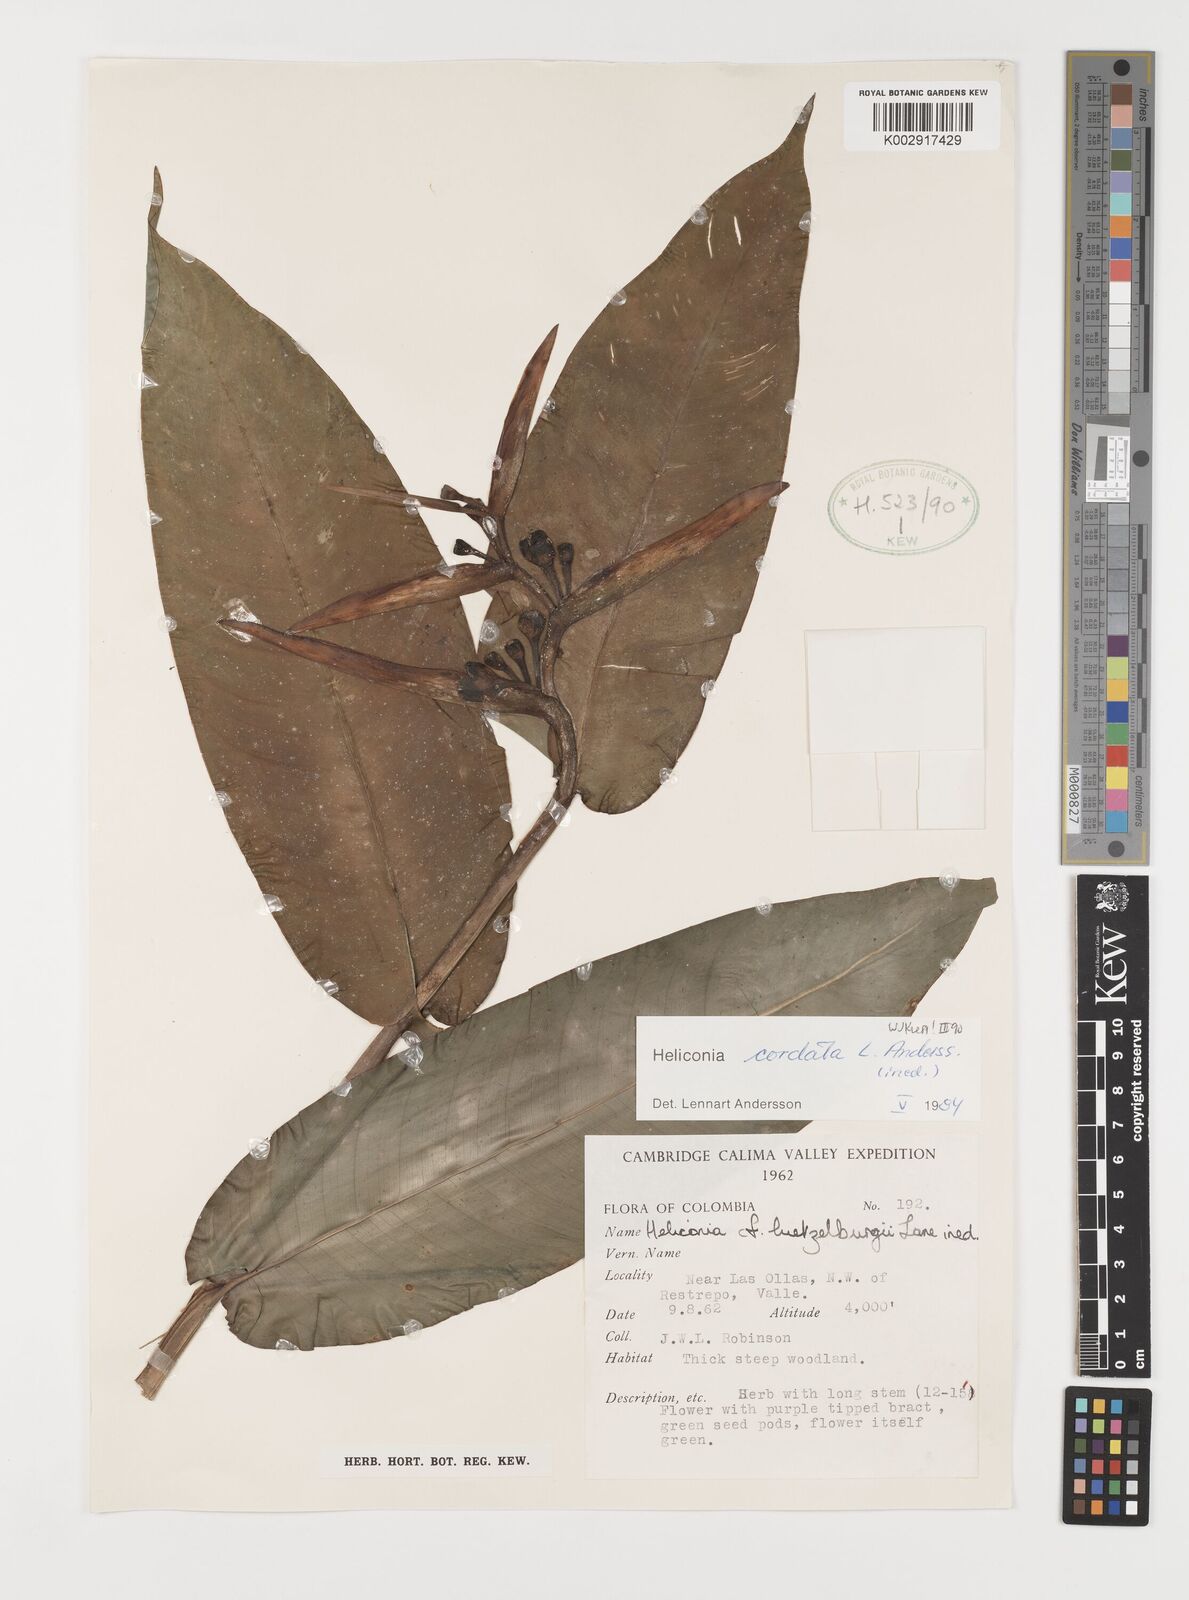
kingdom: Plantae
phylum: Tracheophyta
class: Liliopsida
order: Zingiberales
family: Heliconiaceae
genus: Heliconia
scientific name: Heliconia cordata
